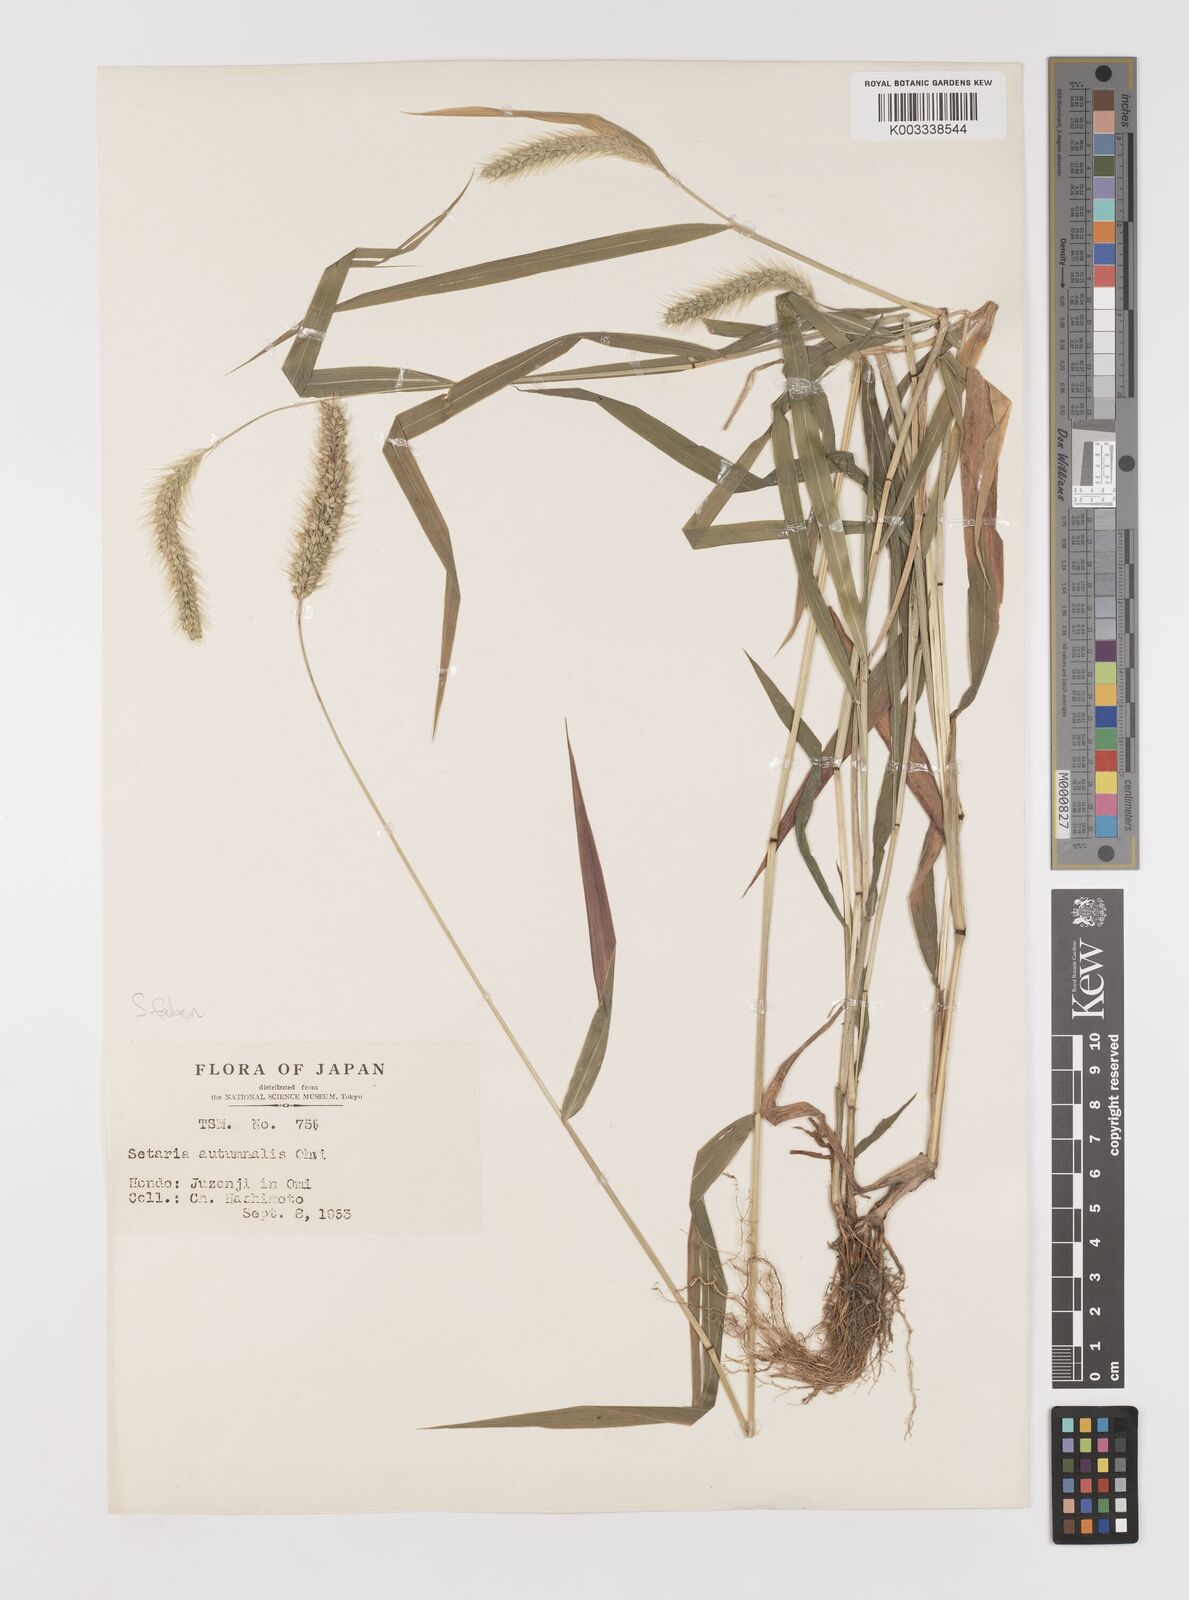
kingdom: Plantae
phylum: Tracheophyta
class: Liliopsida
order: Poales
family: Poaceae
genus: Setaria
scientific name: Setaria faberi
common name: Nodding bristle-grass
